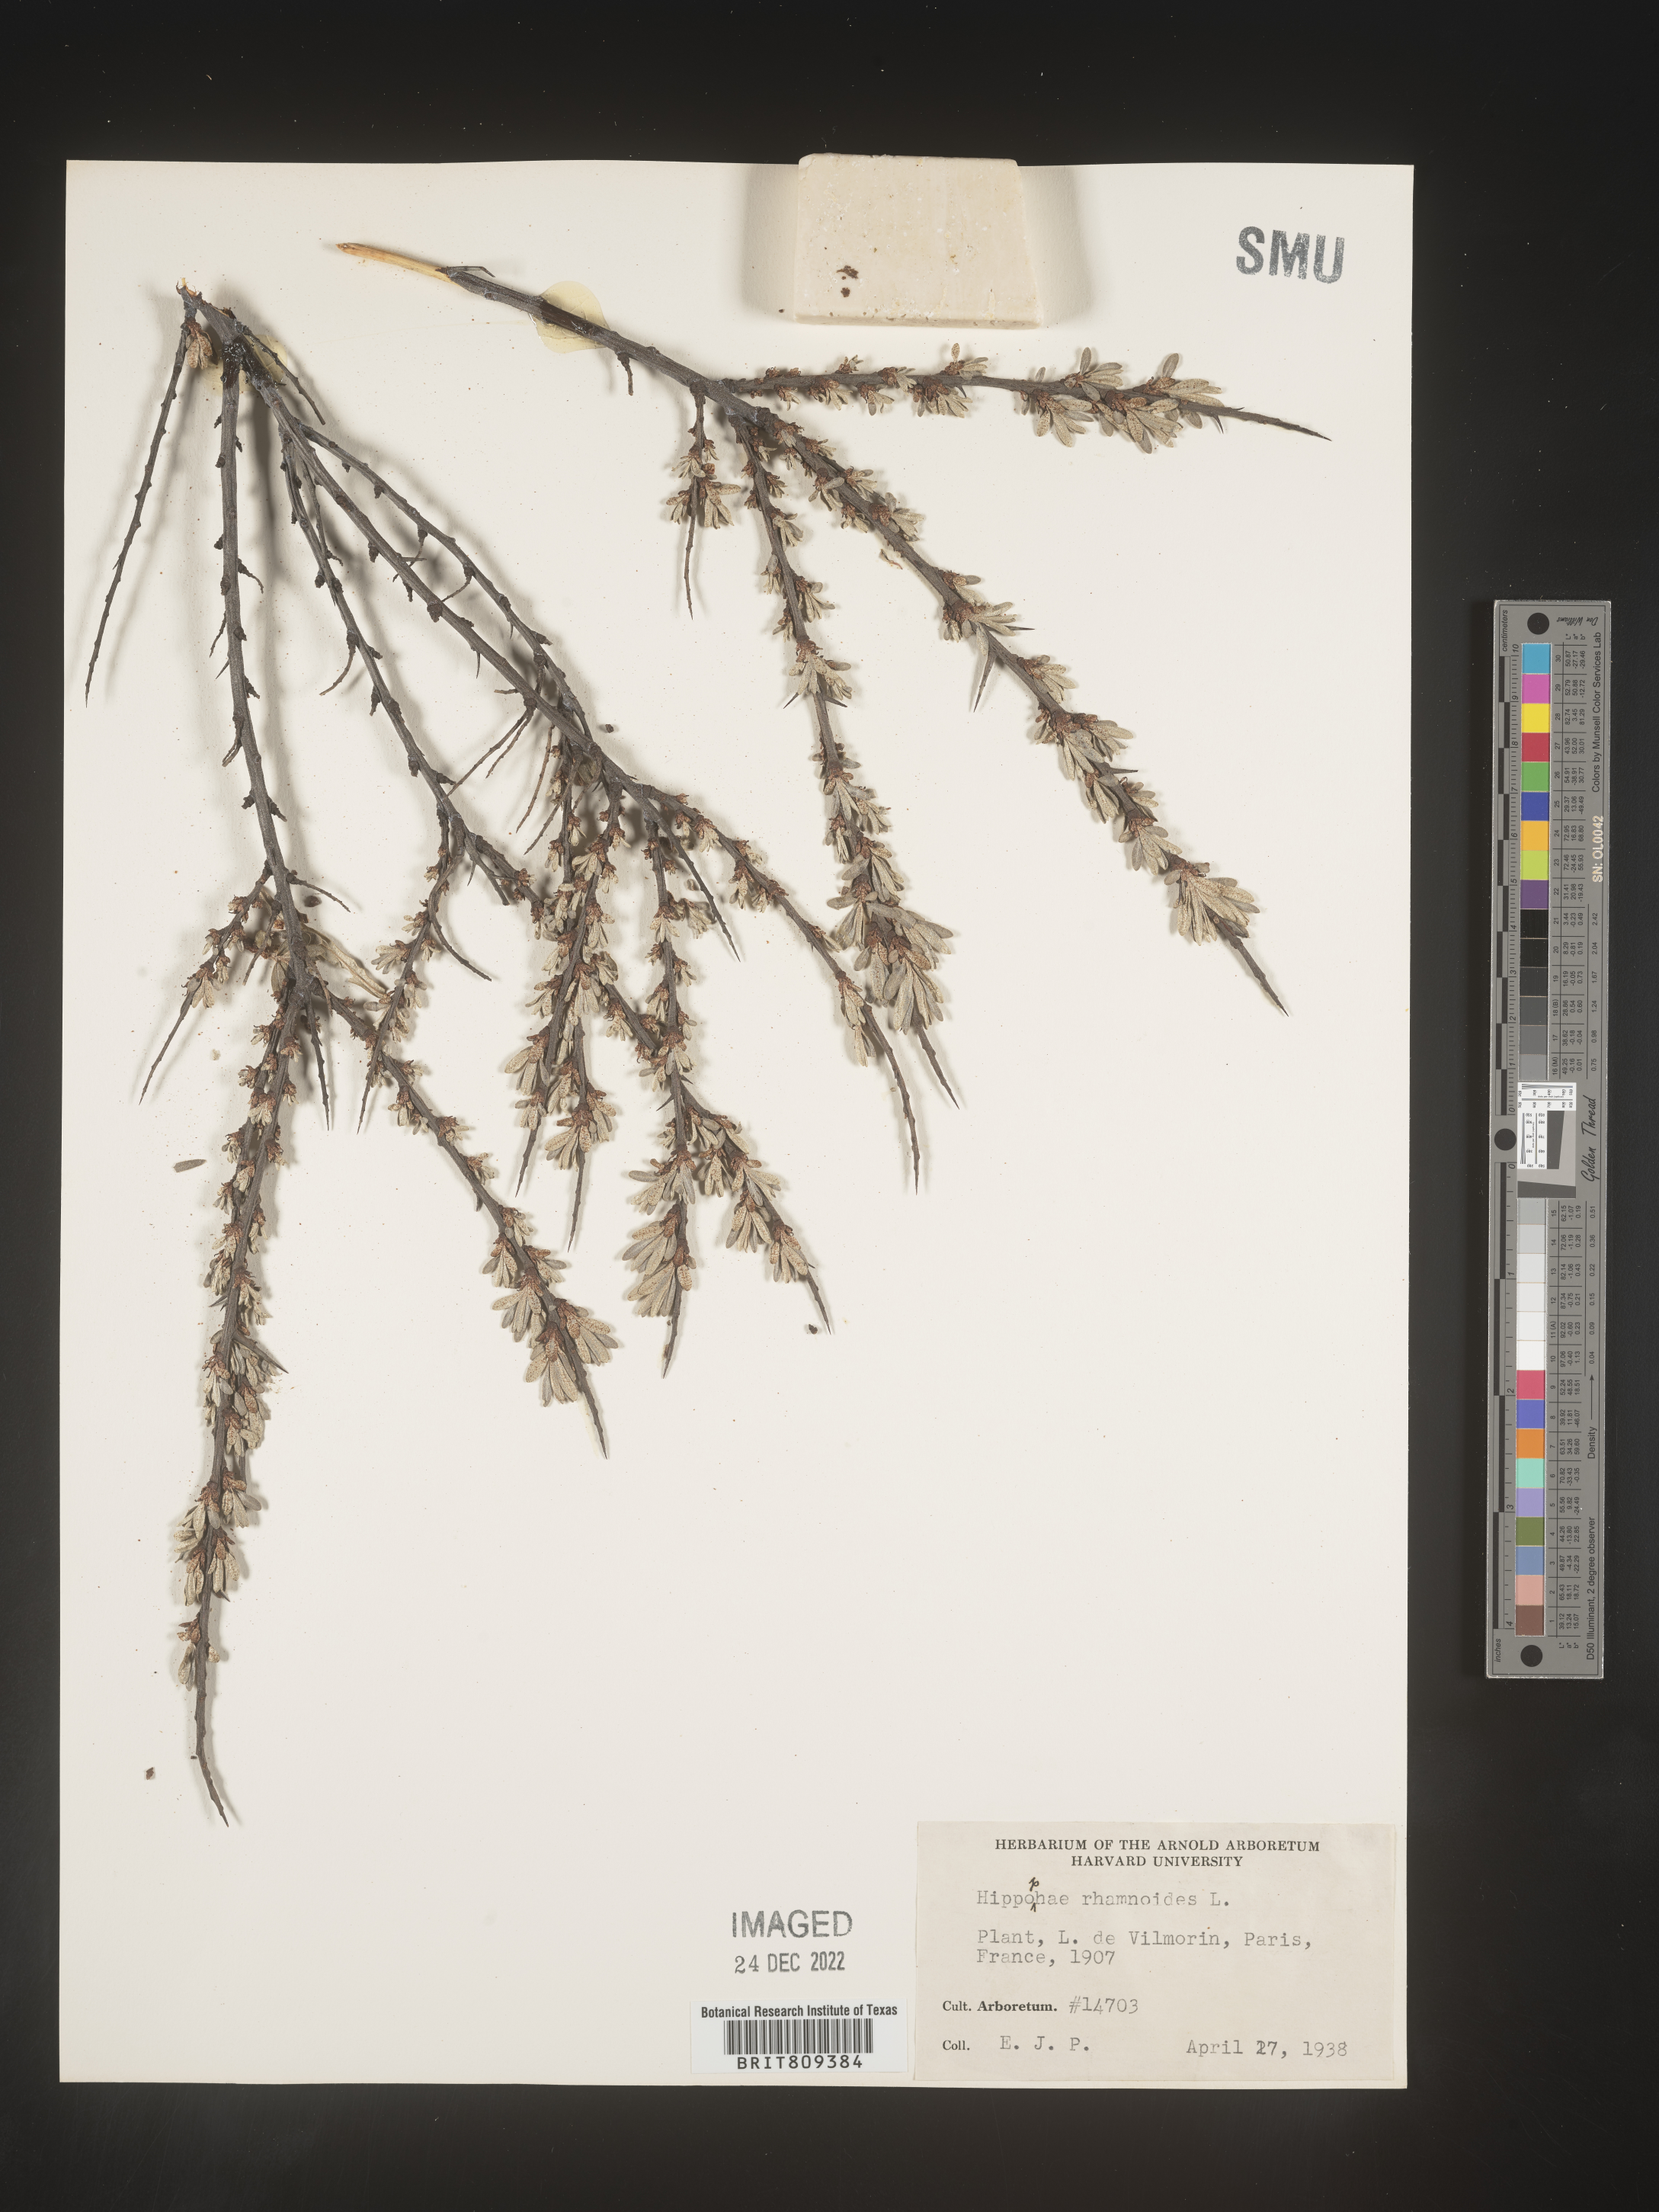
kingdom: Plantae
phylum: Tracheophyta
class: Magnoliopsida
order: Rosales
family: Elaeagnaceae
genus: Hippophae
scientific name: Hippophae
